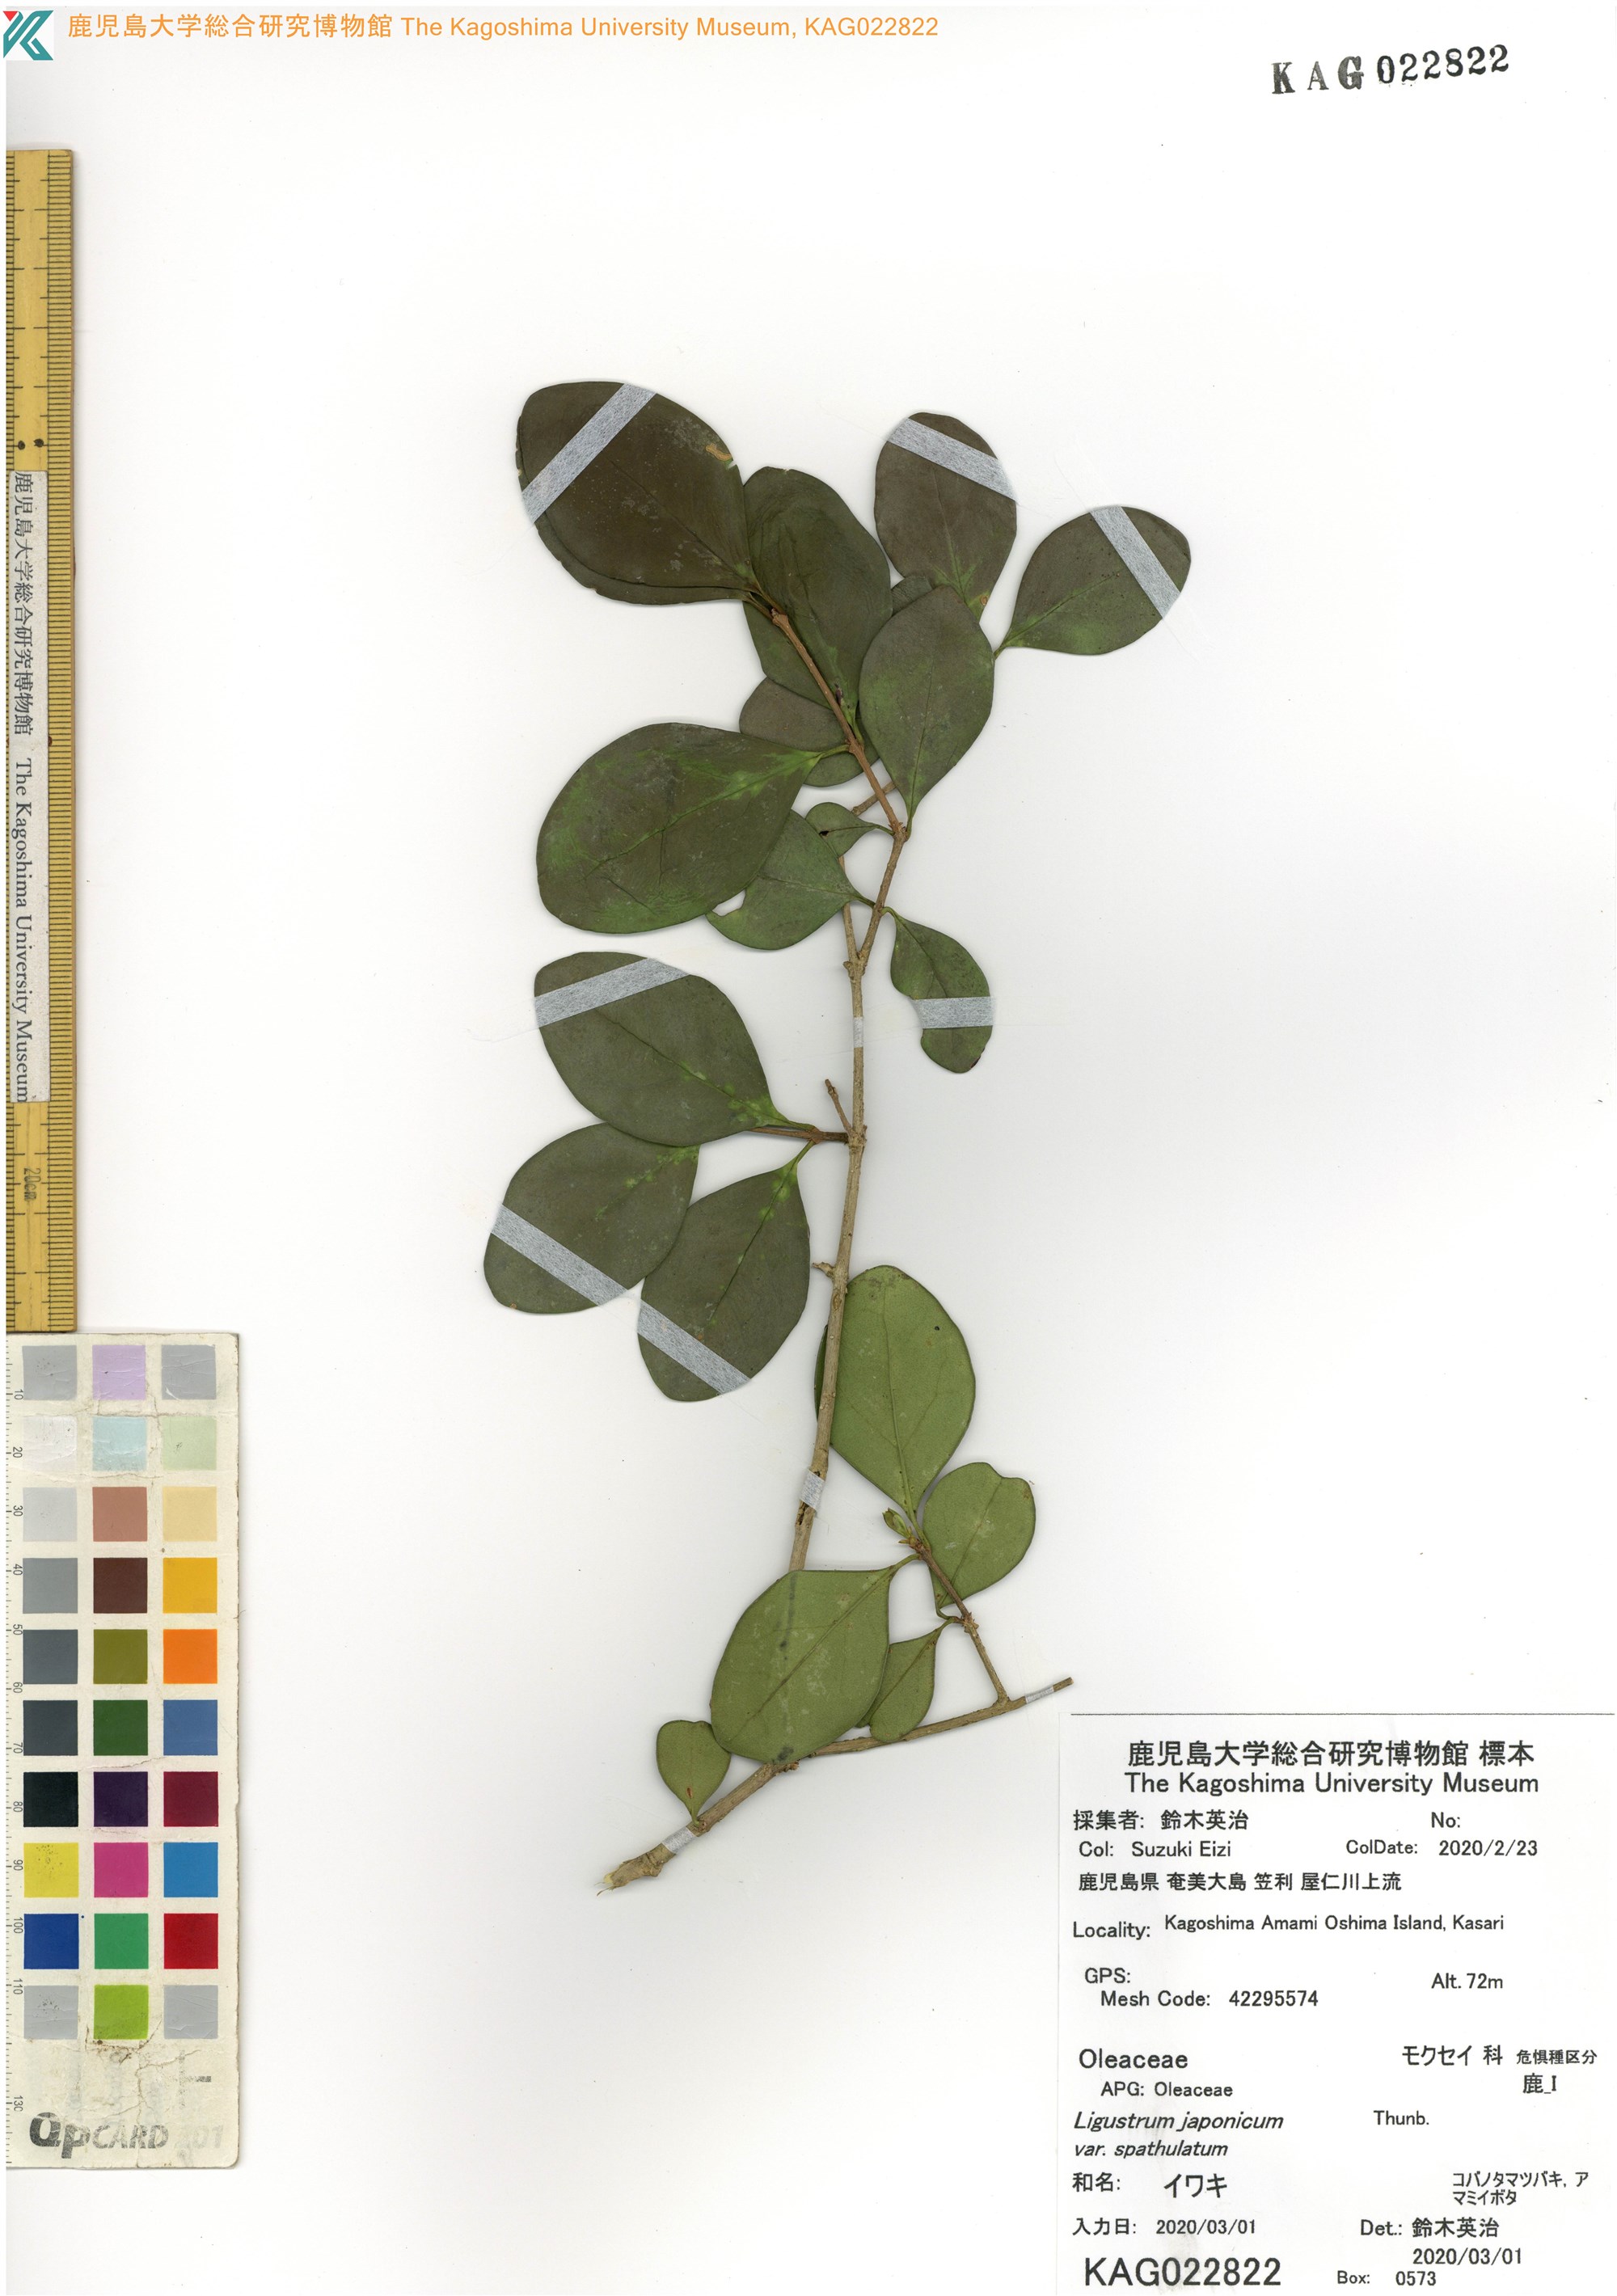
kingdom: Plantae
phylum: Tracheophyta
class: Magnoliopsida
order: Lamiales
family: Oleaceae
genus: Ligustrum
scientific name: Ligustrum japonicum
